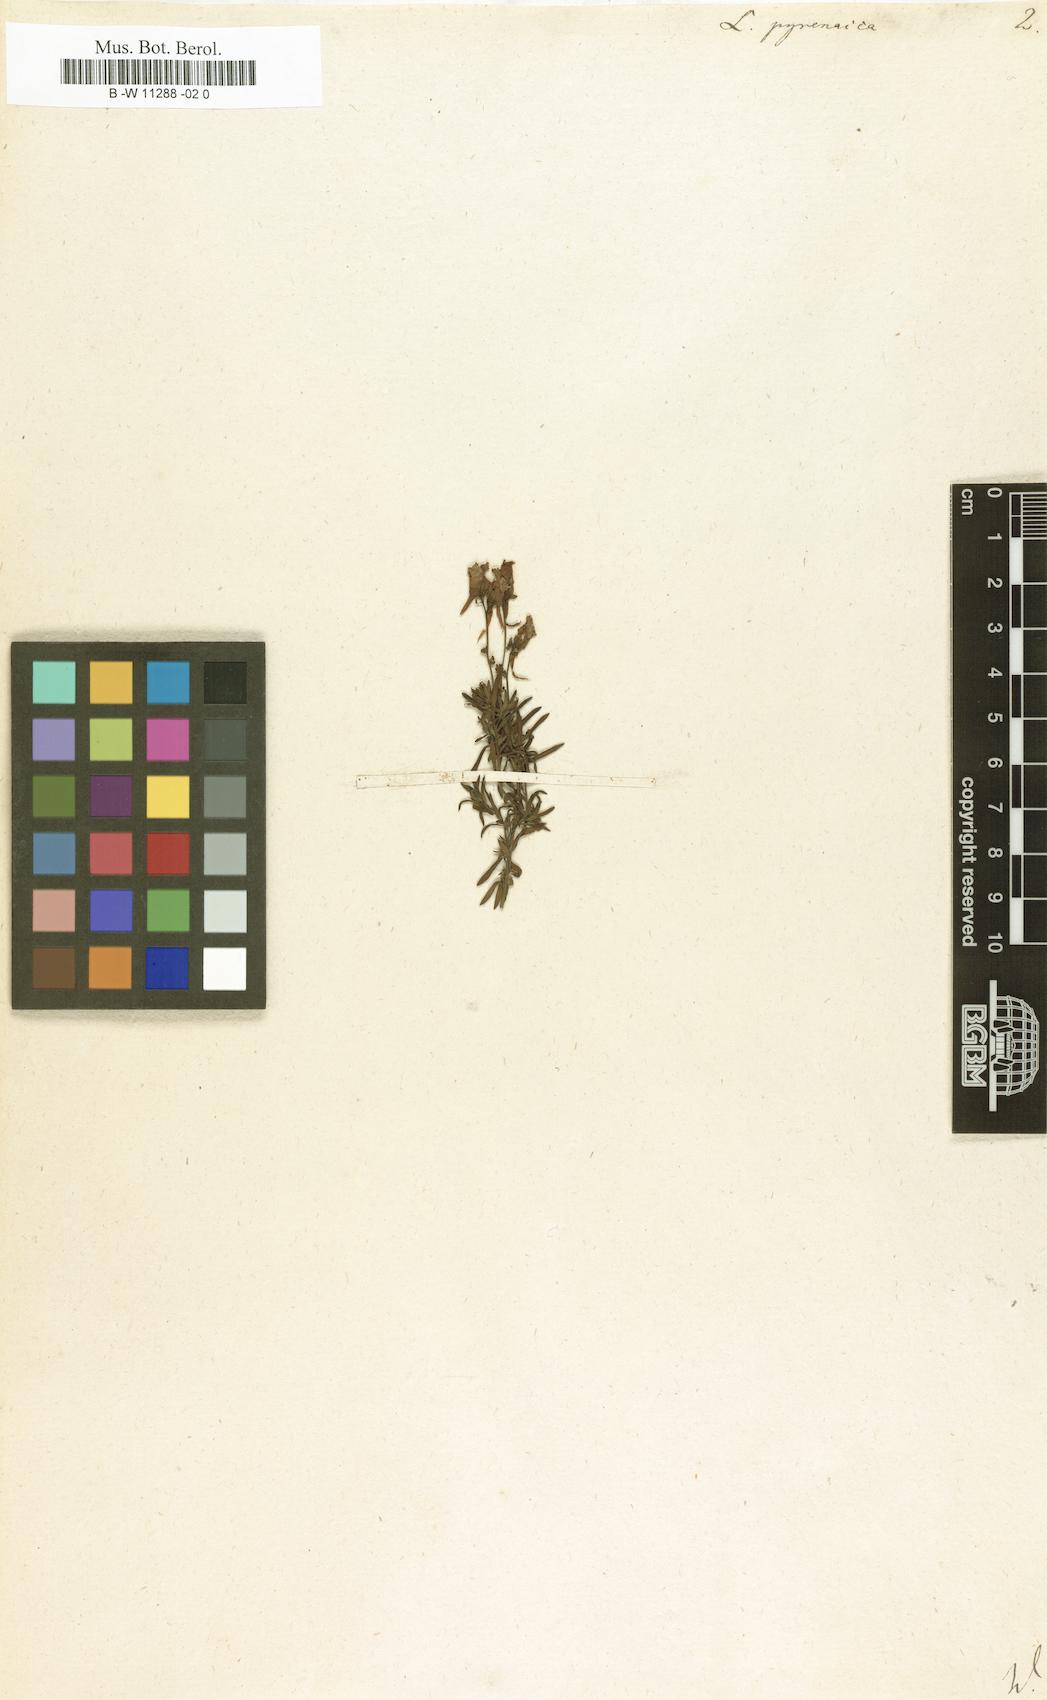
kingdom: Plantae
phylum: Tracheophyta
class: Magnoliopsida
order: Lamiales
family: Plantaginaceae
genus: Linaria
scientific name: Linaria supina
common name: Prostrate toadflax
